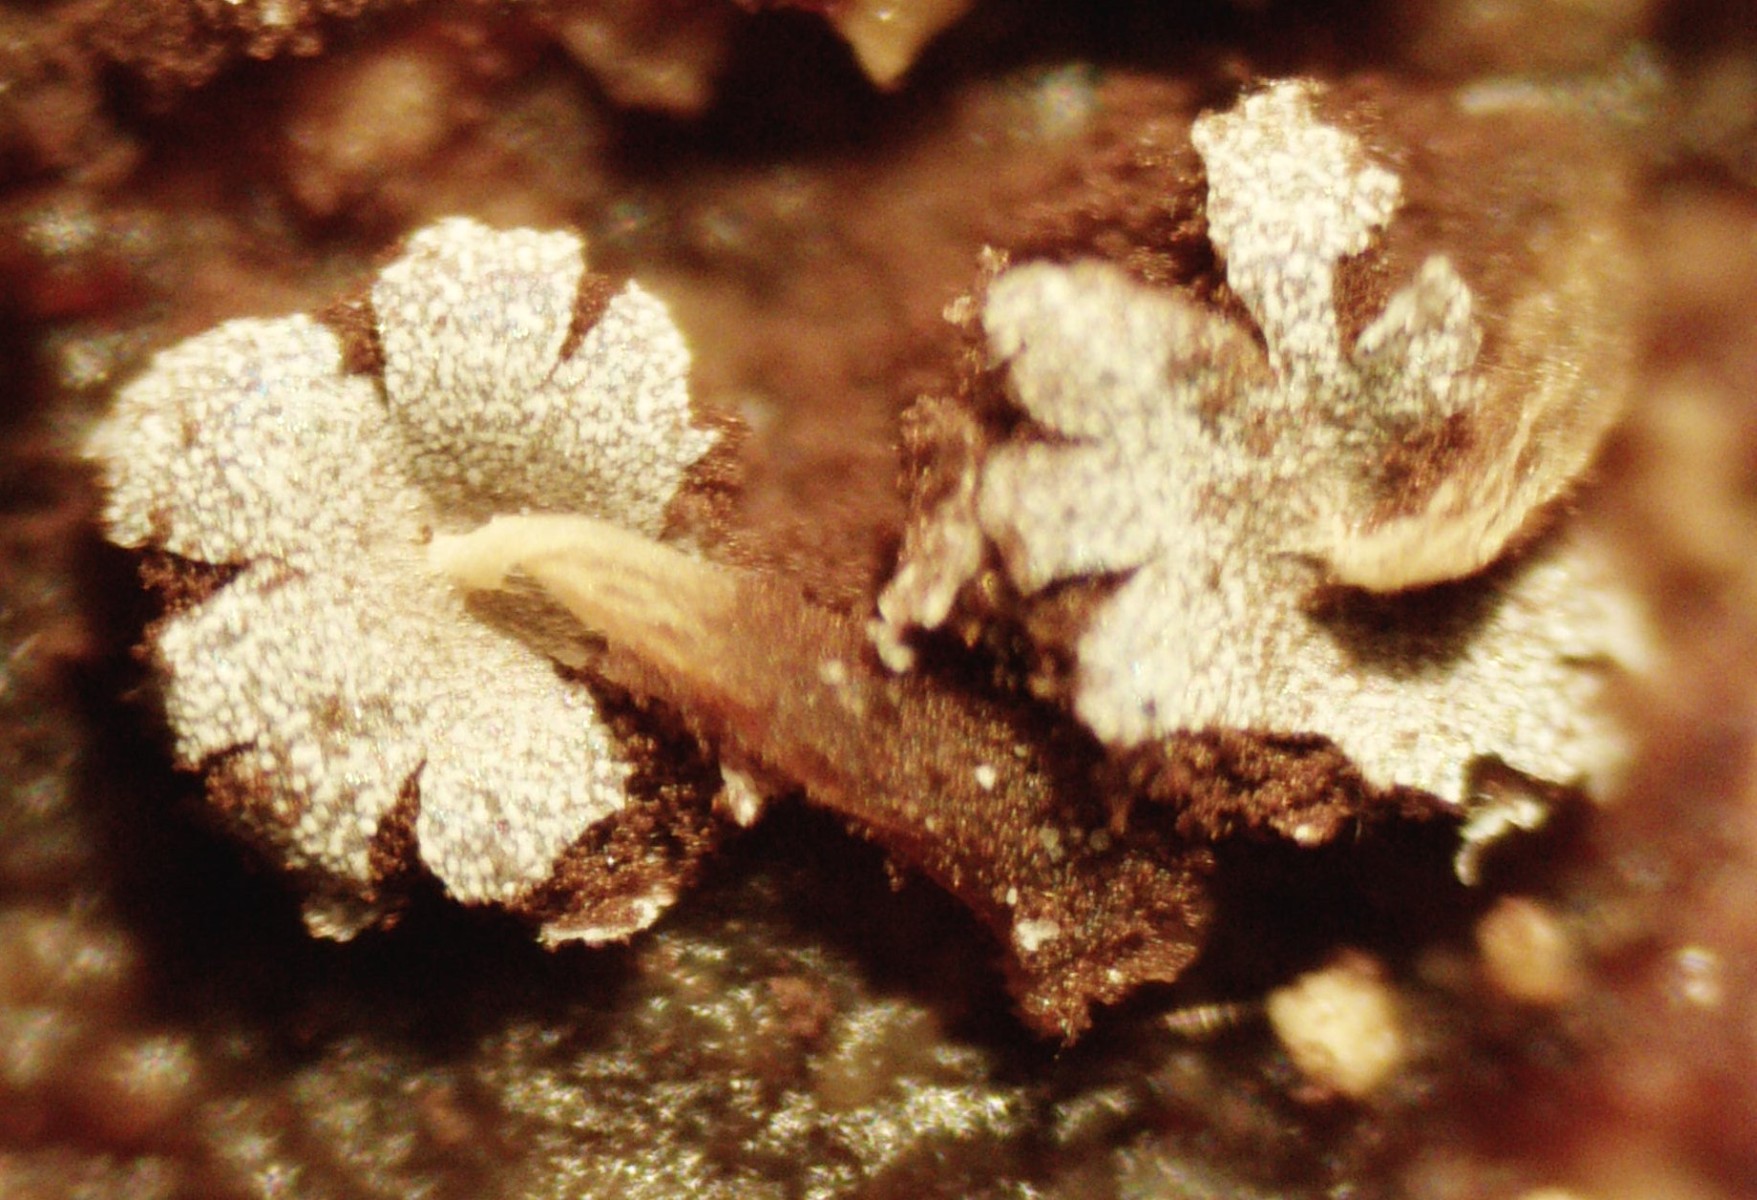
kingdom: Fungi
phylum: Basidiomycota
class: Atractiellomycetes
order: Atractiellales
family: Phleogenaceae
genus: Phleogena
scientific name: Phleogena faginea
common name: pudderkølle
